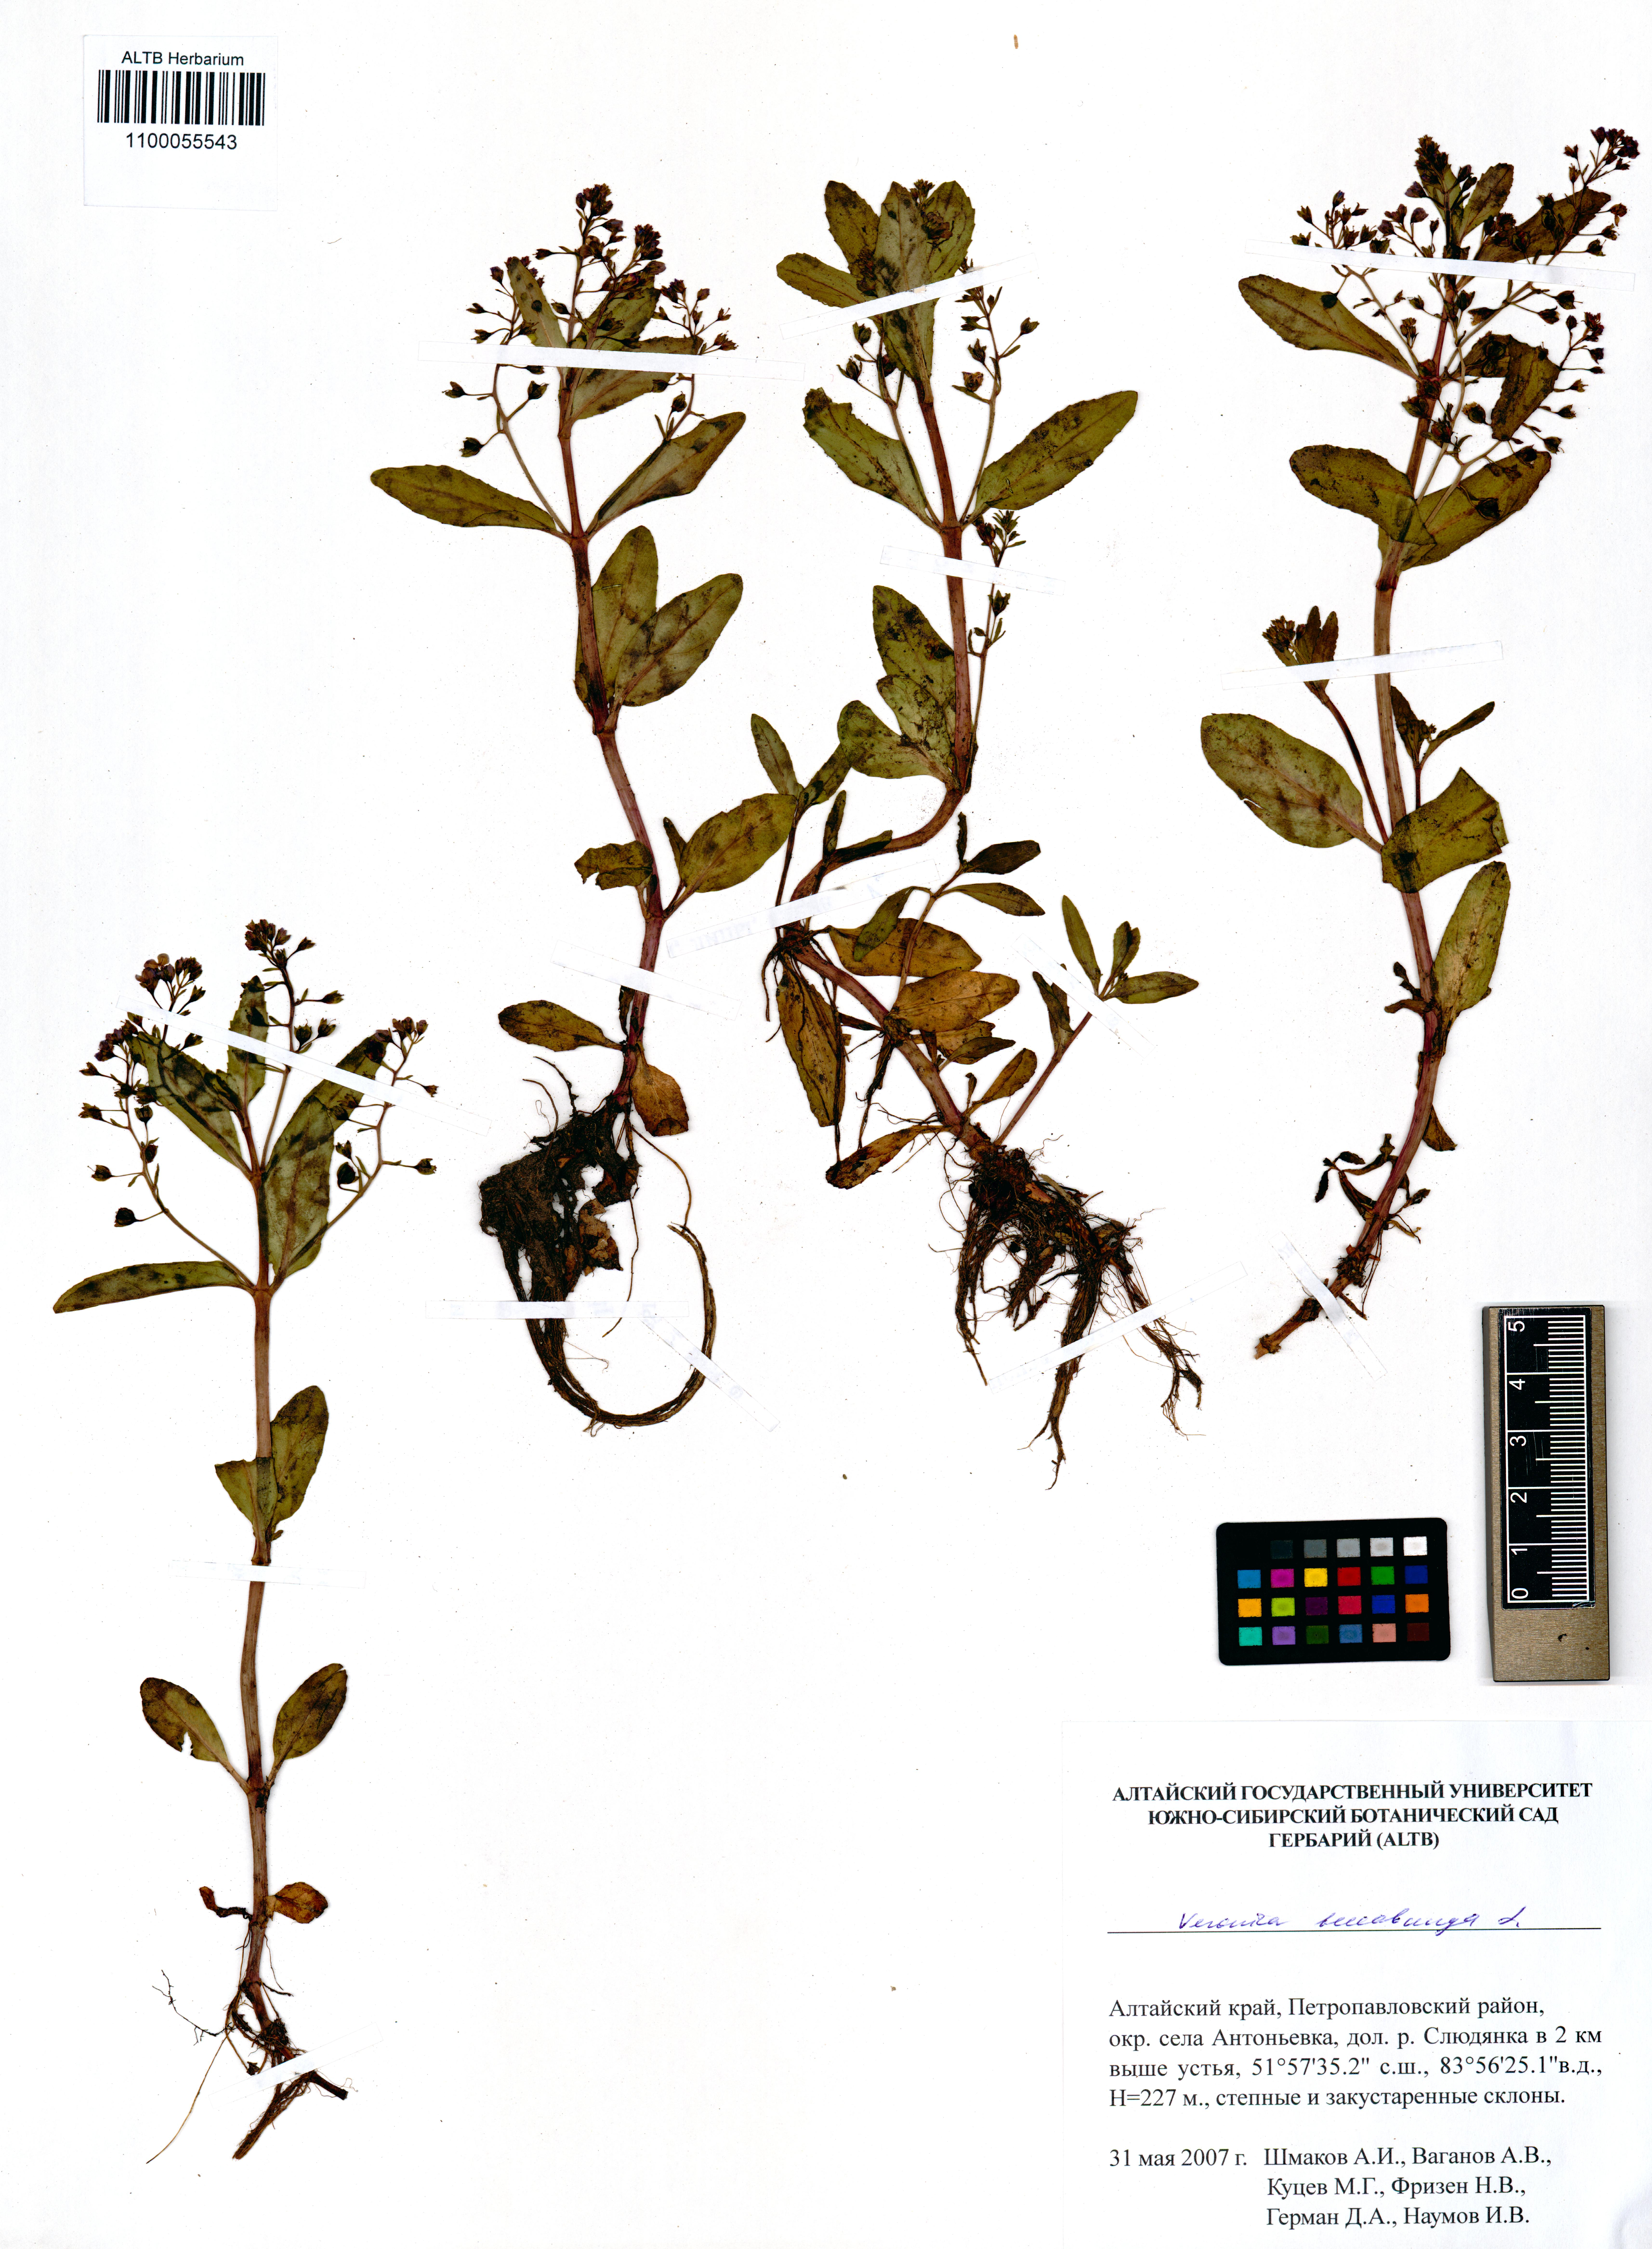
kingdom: Plantae
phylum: Tracheophyta
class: Magnoliopsida
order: Lamiales
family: Plantaginaceae
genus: Veronica
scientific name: Veronica beccabunga
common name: Brooklime
